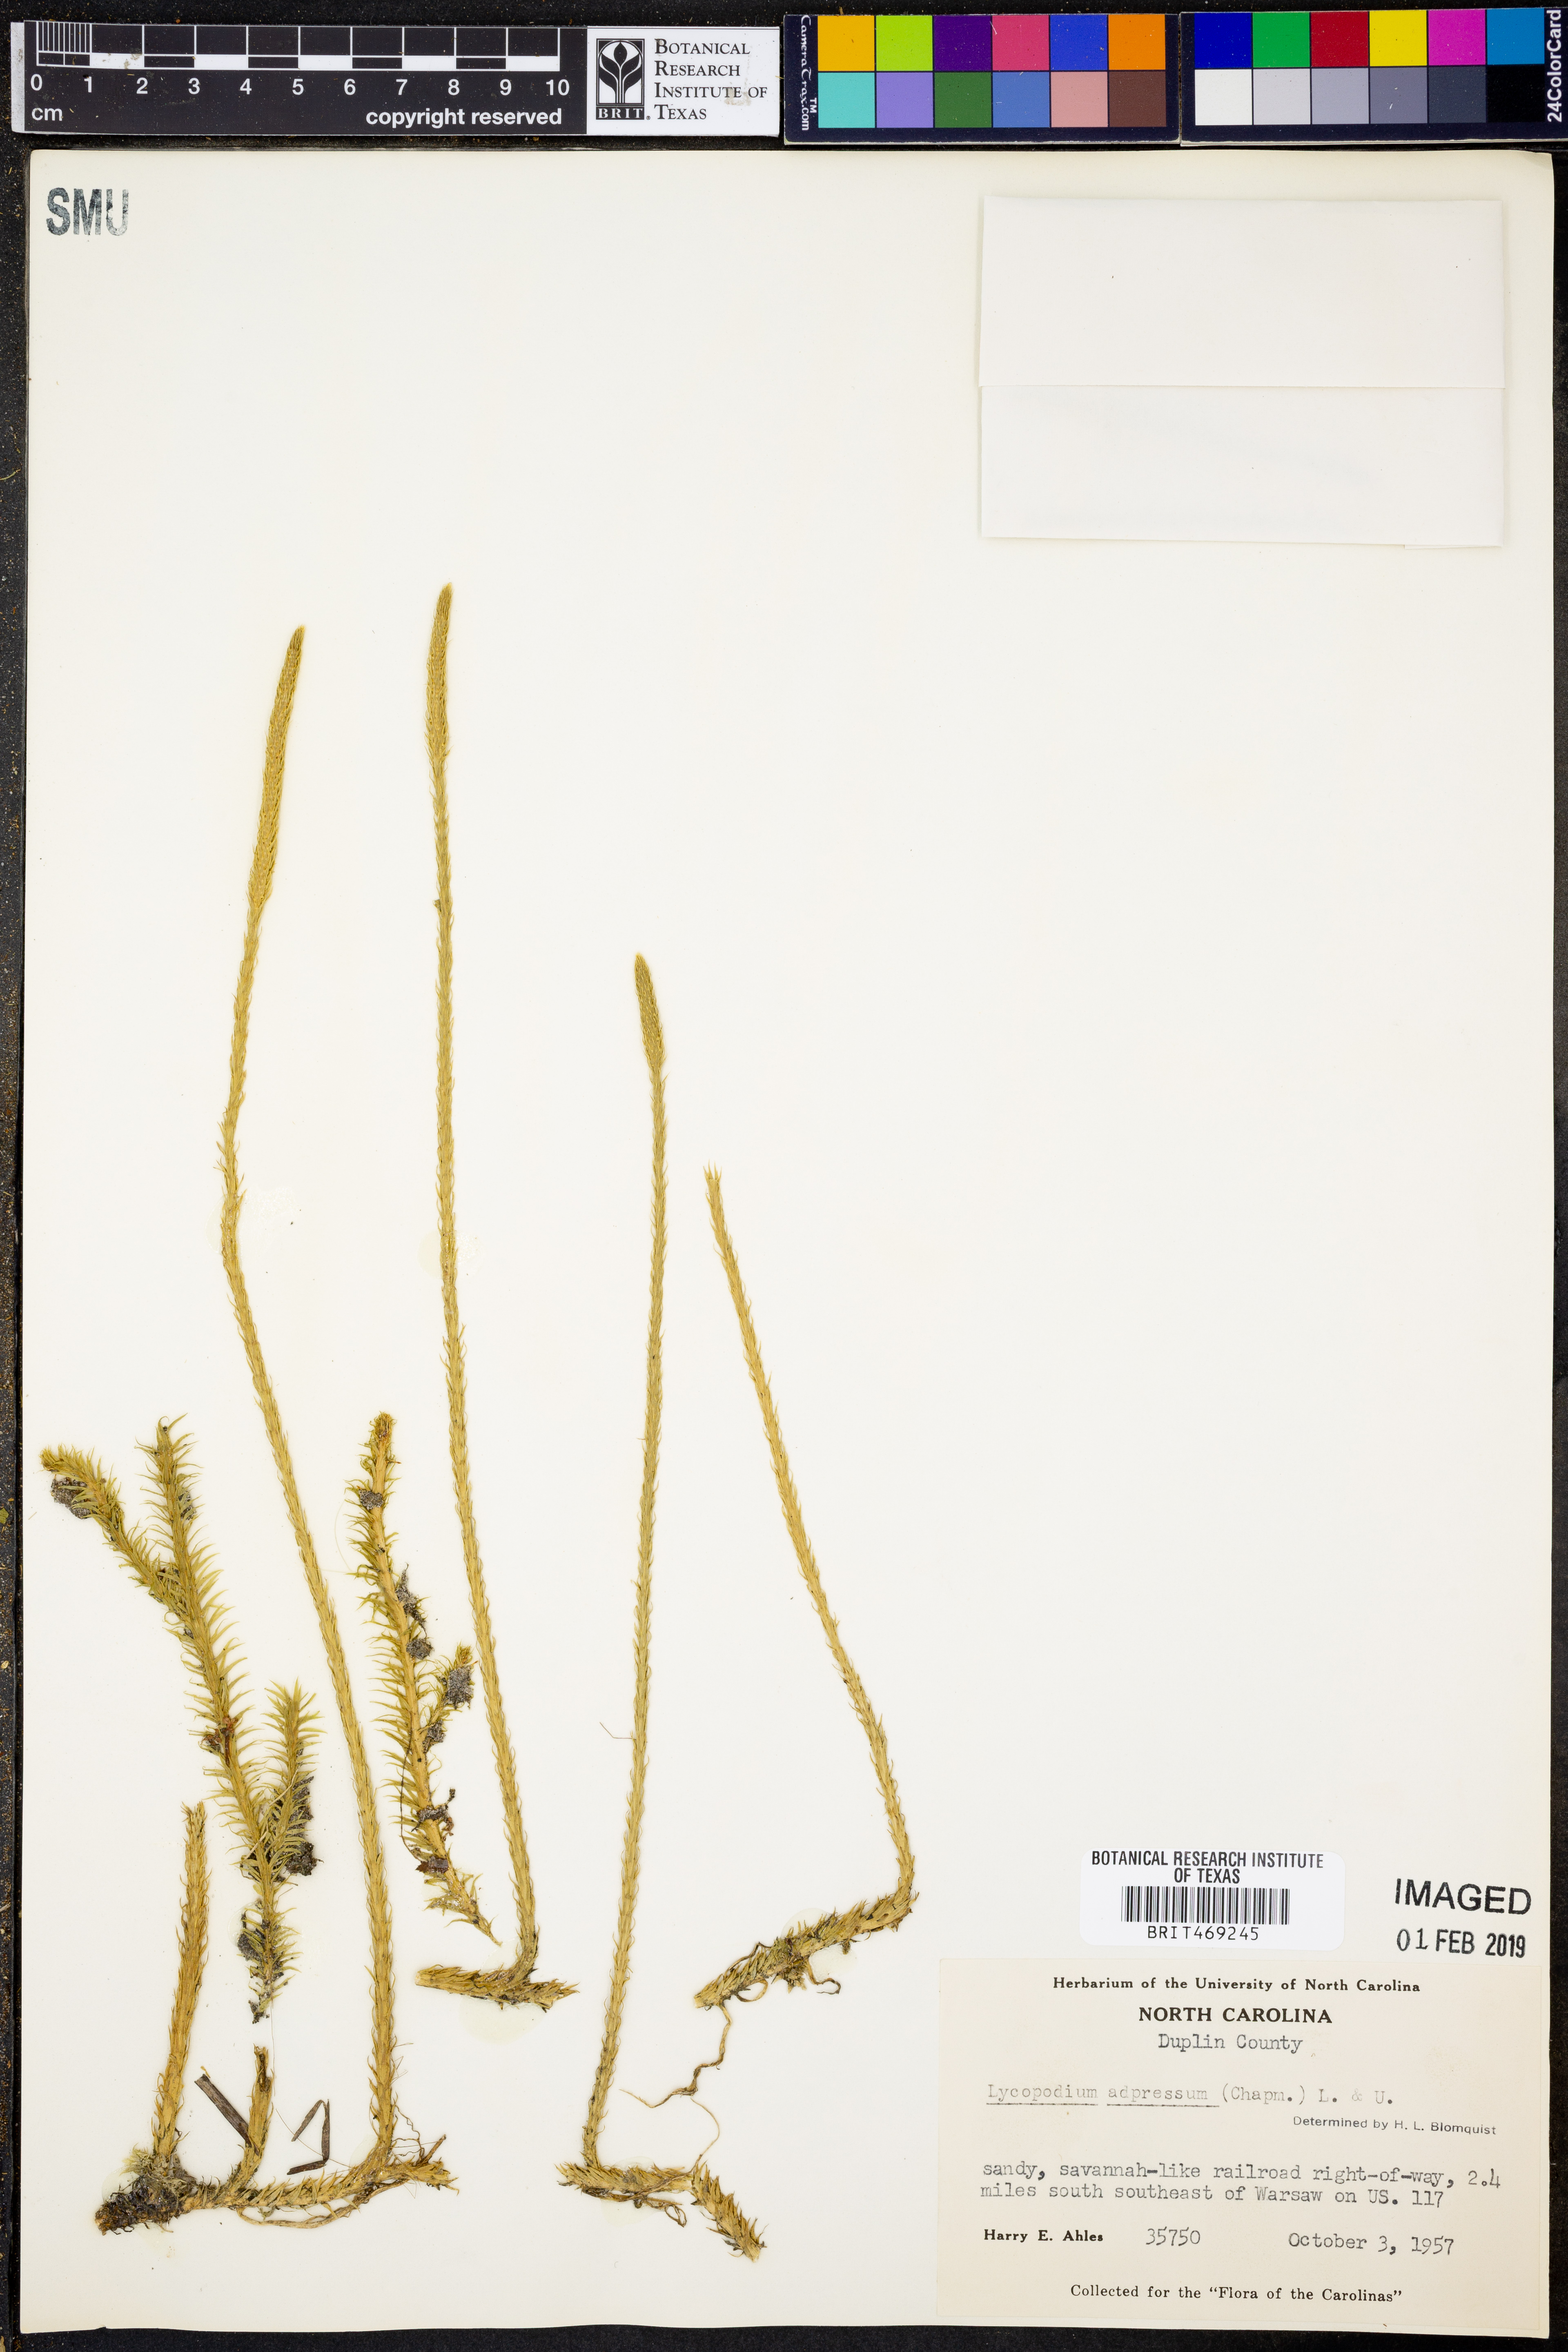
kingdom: Plantae
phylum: Tracheophyta
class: Lycopodiopsida
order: Lycopodiales
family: Lycopodiaceae
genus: Lycopodiella
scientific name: Lycopodiella appressa
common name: Appressed bog clubmoss
